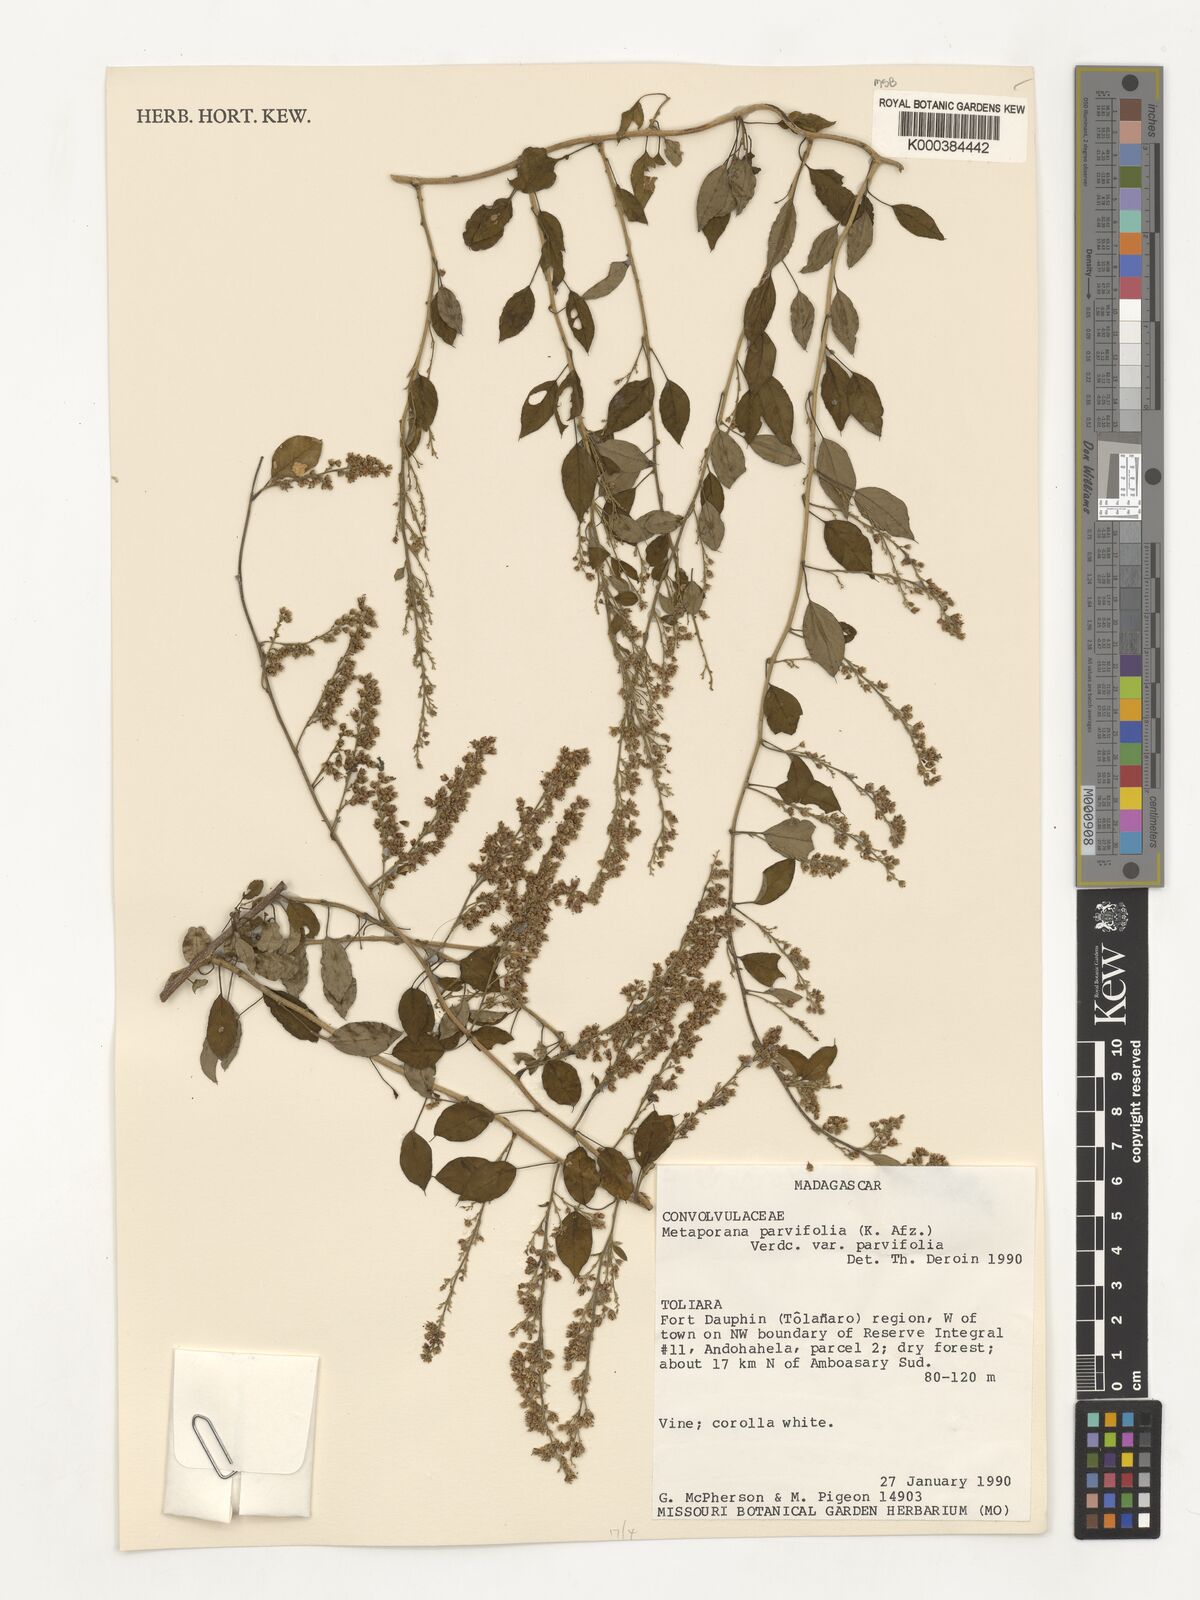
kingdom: Plantae
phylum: Tracheophyta
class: Magnoliopsida
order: Solanales
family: Convolvulaceae
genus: Metaporana
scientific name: Metaporana parvifolia
